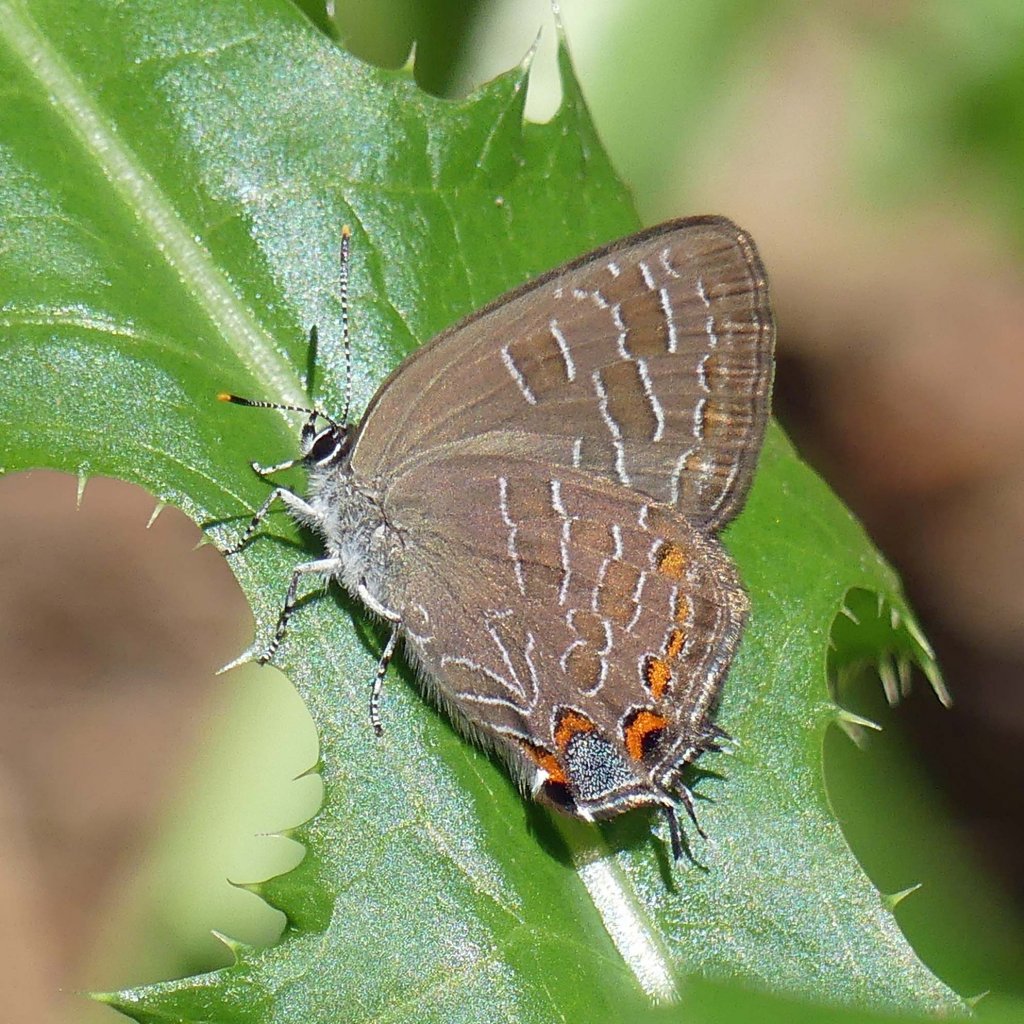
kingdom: Animalia
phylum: Arthropoda
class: Insecta
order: Lepidoptera
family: Lycaenidae
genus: Satyrium
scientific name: Satyrium liparops
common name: Striped Hairstreak
